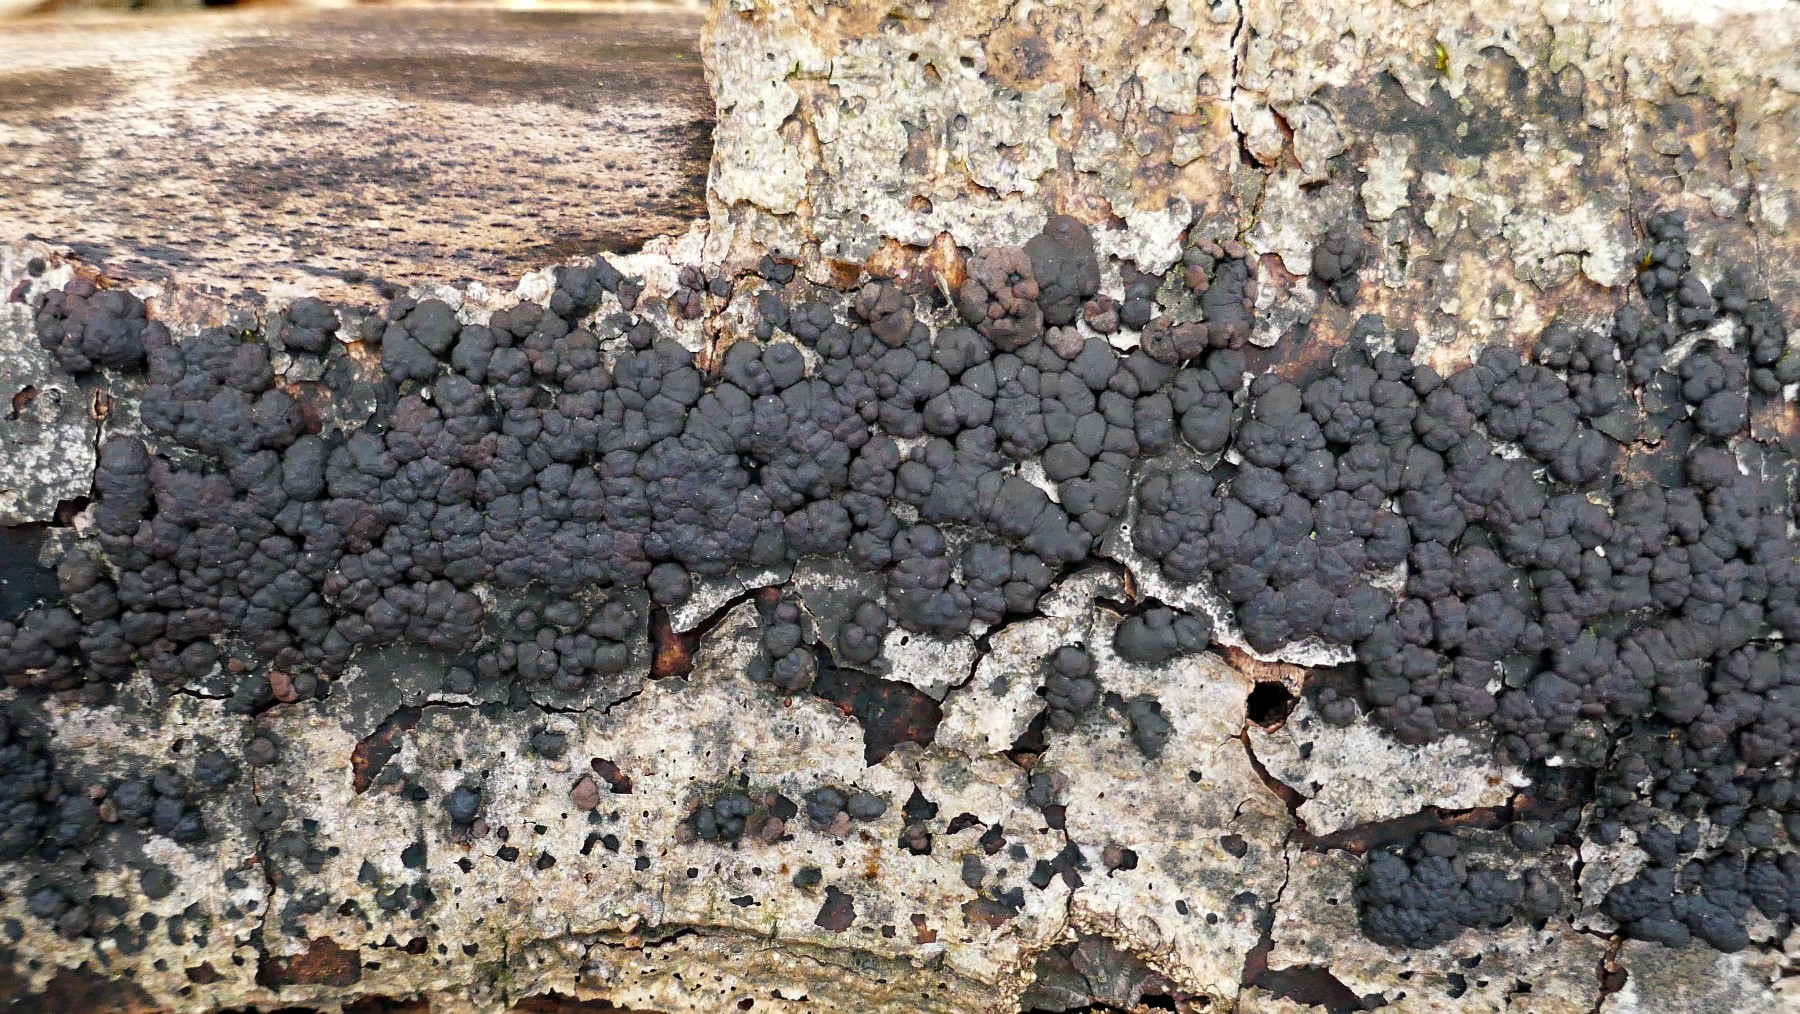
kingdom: Fungi
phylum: Ascomycota
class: Sordariomycetes
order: Xylariales
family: Hypoxylaceae
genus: Jackrogersella
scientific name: Jackrogersella cohaerens
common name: sammenflydende kulbær
